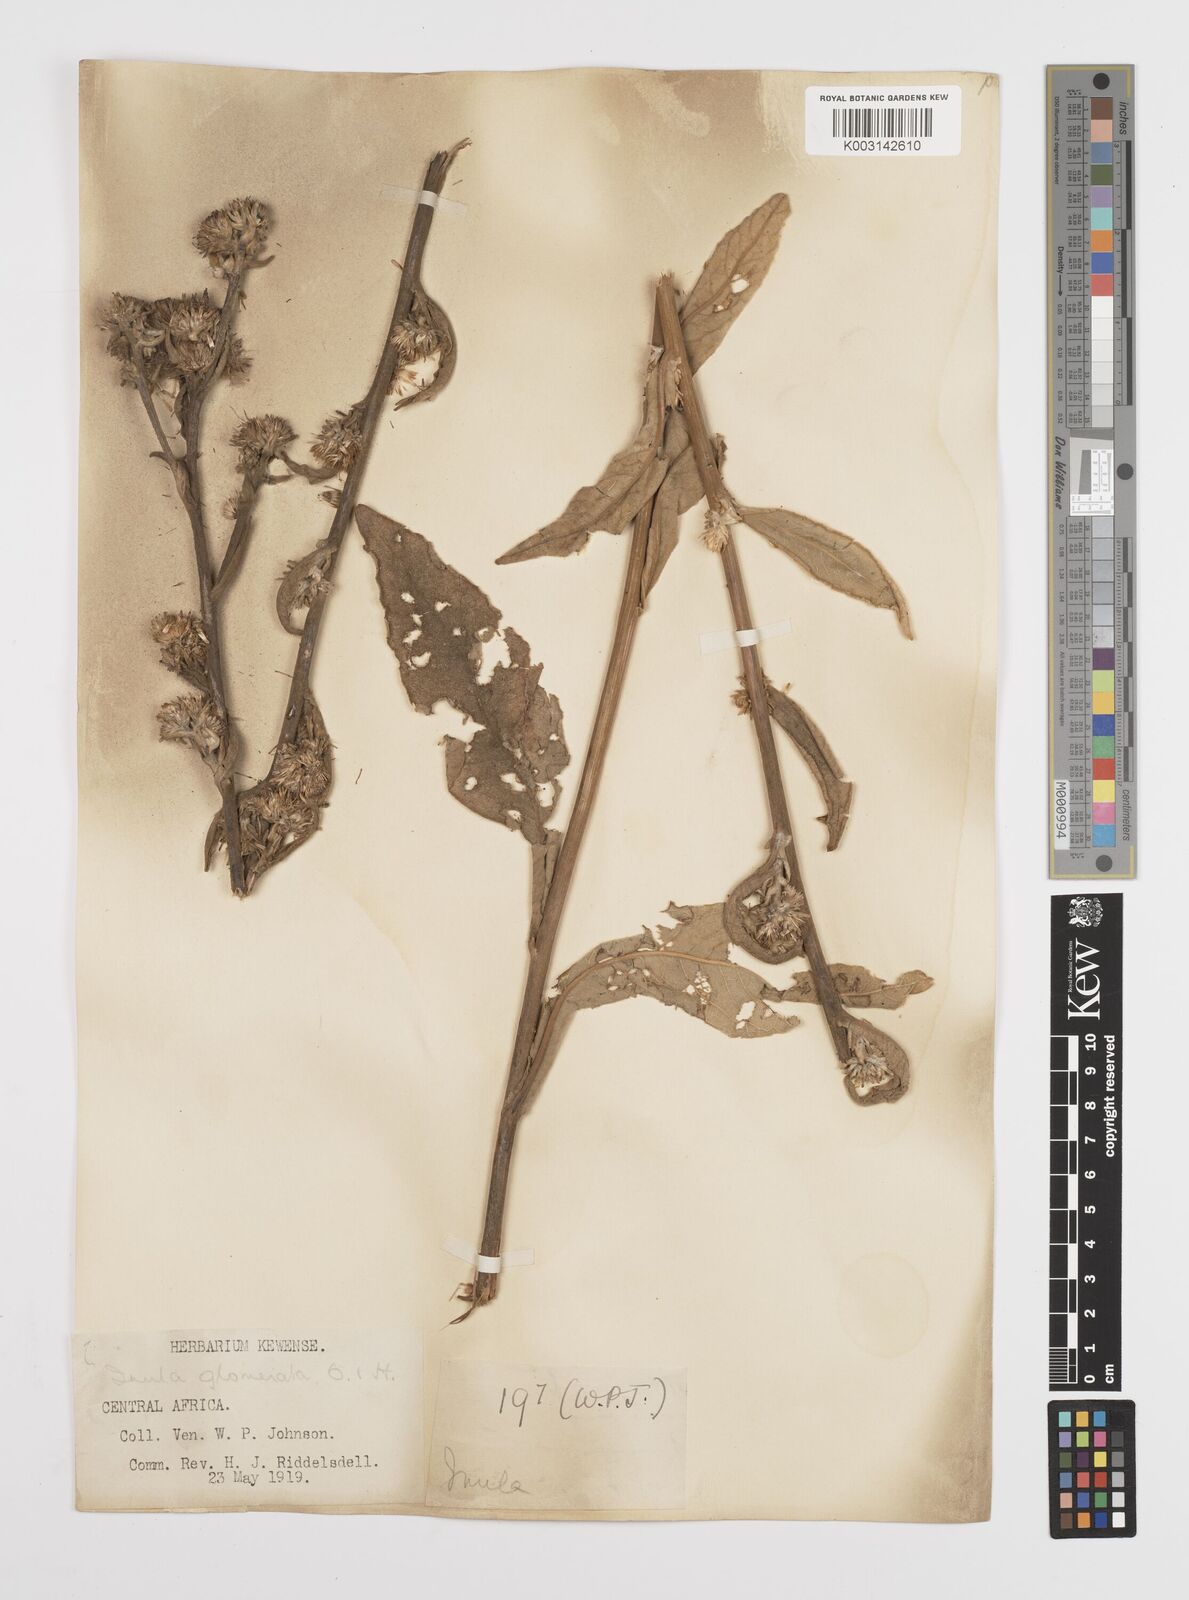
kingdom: Plantae
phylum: Tracheophyta
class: Magnoliopsida
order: Asterales
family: Asteraceae
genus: Inula
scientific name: Inula glomerata
